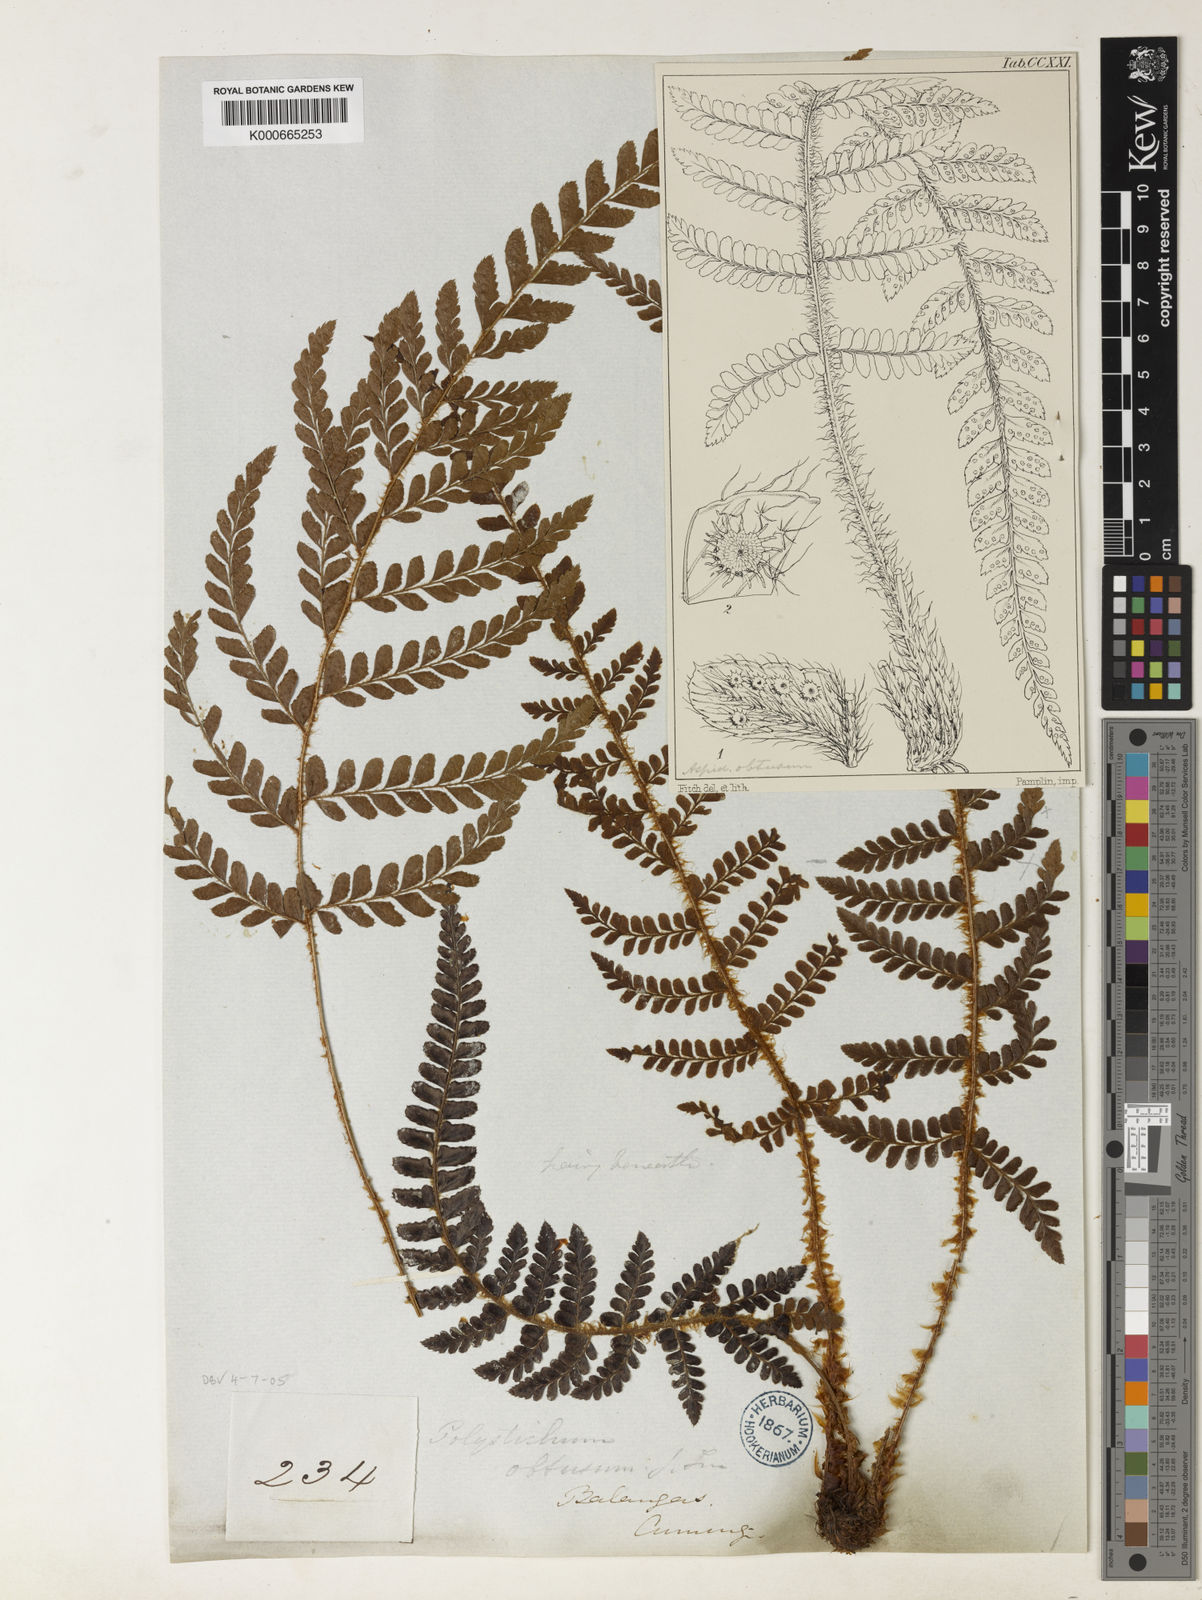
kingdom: Plantae
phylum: Tracheophyta
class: Polypodiopsida
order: Polypodiales
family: Dryopteridaceae
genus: Polystichum
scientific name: Polystichum obtusum
